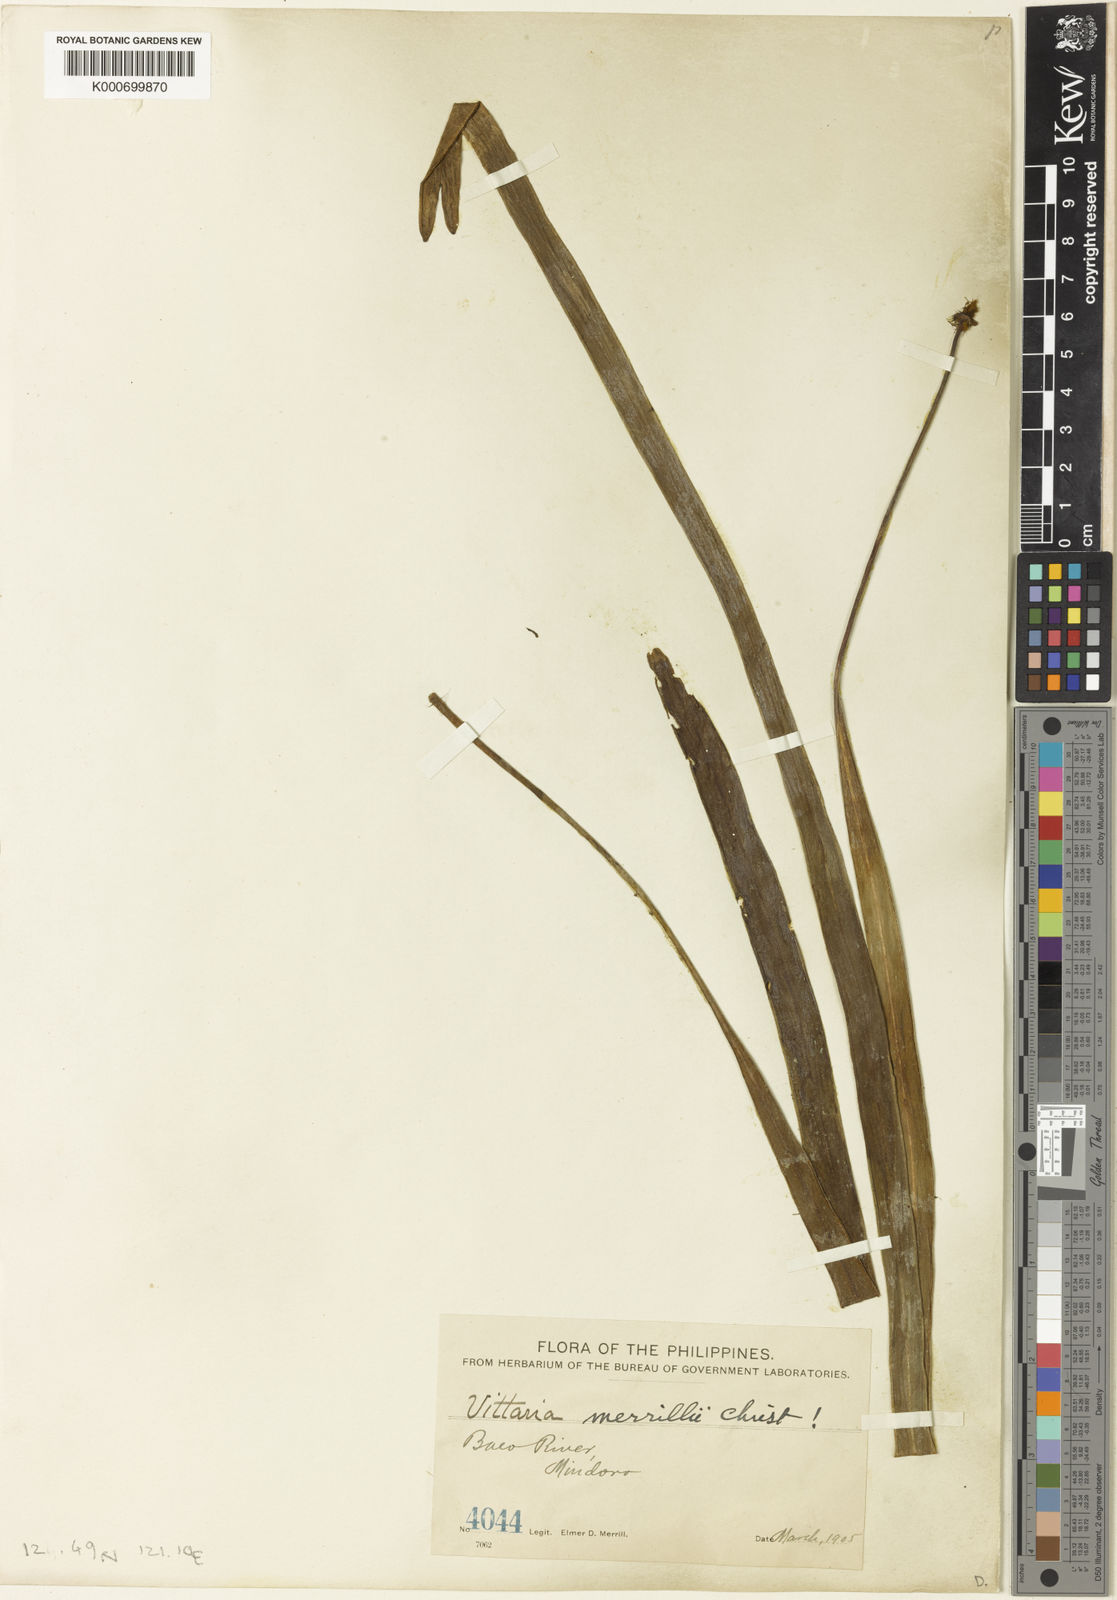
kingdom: Plantae
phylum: Tracheophyta
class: Polypodiopsida
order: Polypodiales
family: Pteridaceae
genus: Haplopteris
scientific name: Haplopteris zosterifolia
